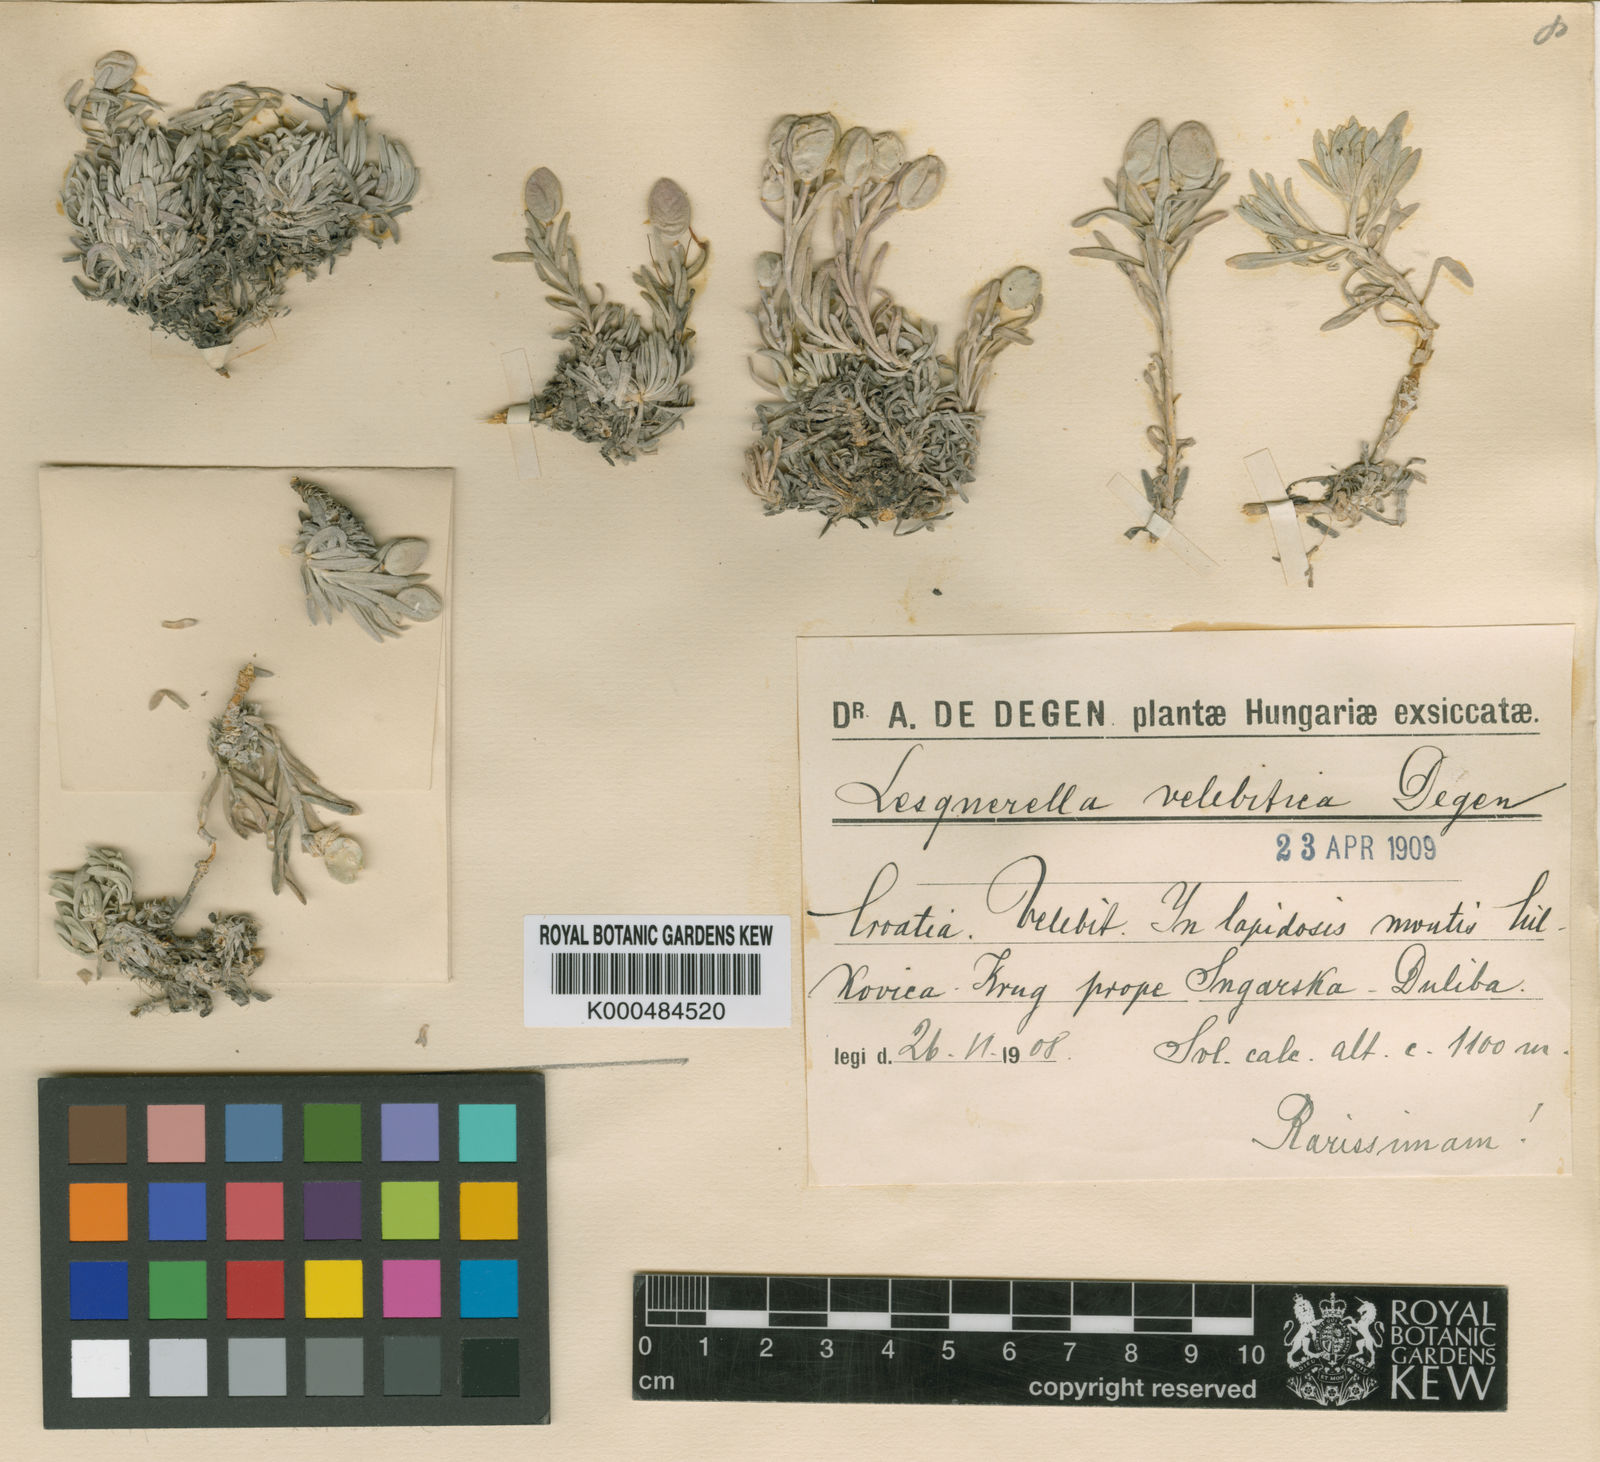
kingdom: Plantae
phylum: Tracheophyta
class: Magnoliopsida
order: Brassicales
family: Brassicaceae
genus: Degenia
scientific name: Degenia velebitica
